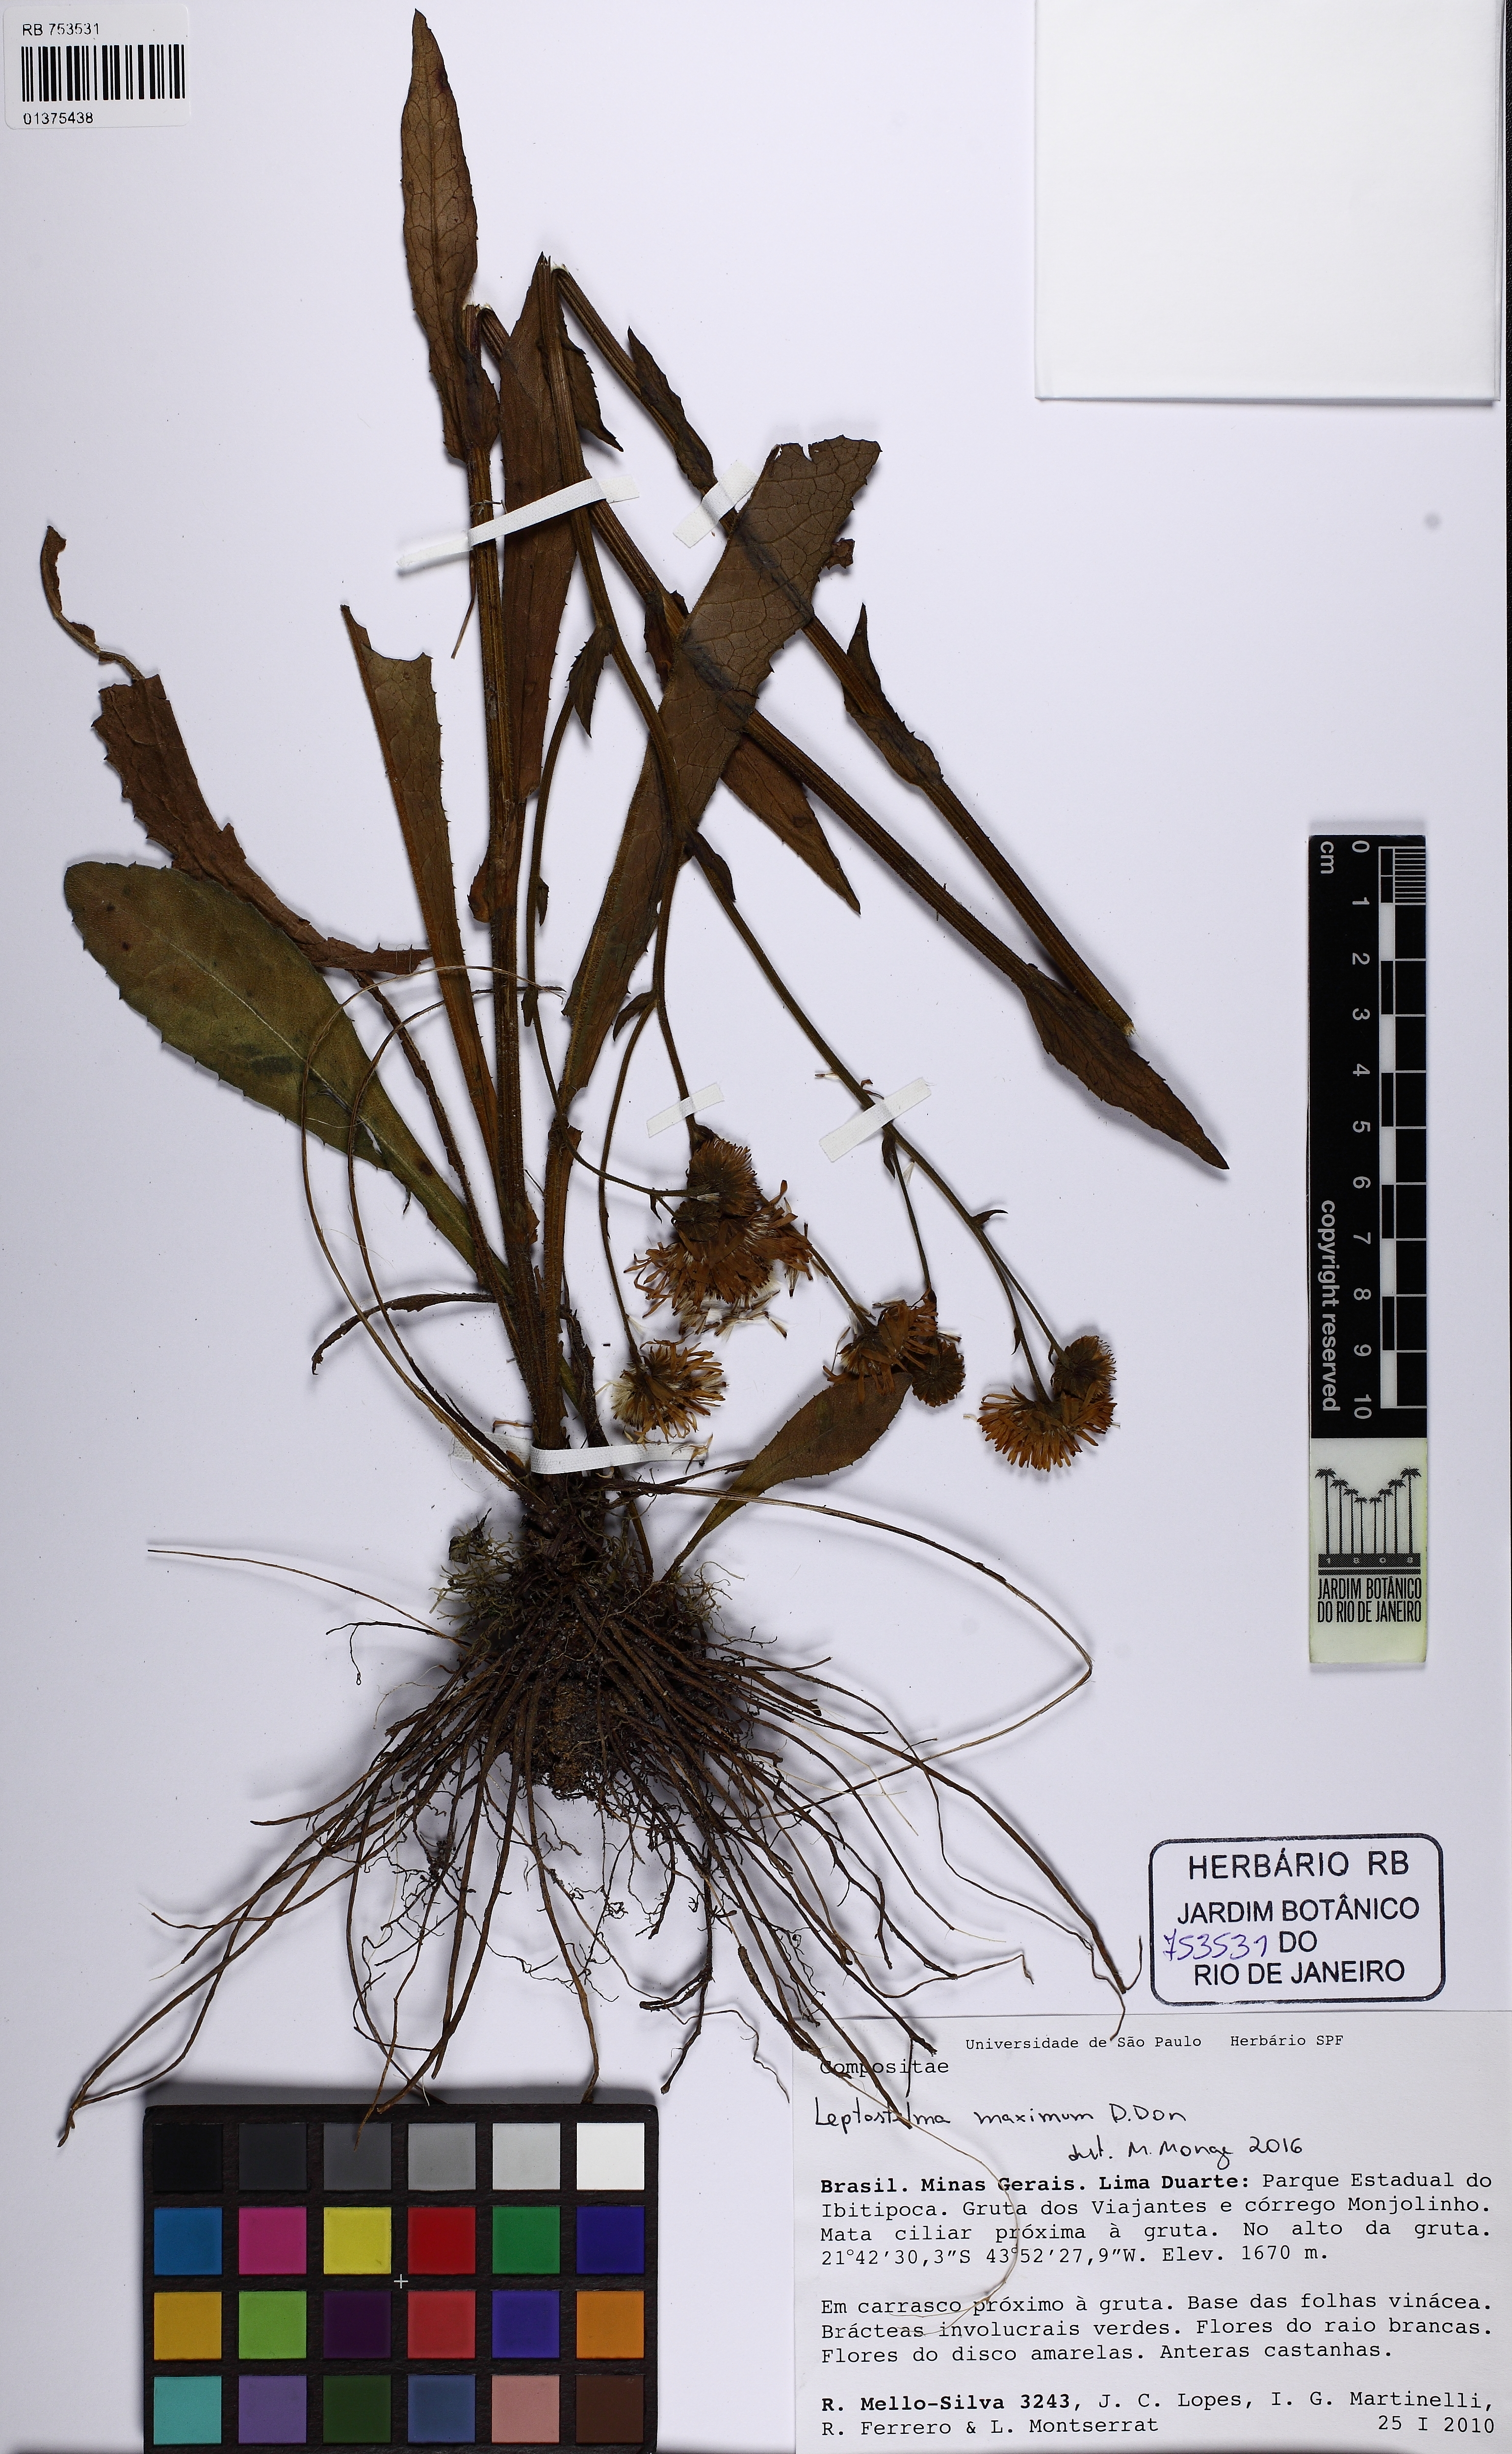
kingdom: Plantae
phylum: Tracheophyta
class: Magnoliopsida
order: Asterales
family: Asteraceae
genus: Leptostelma
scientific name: Leptostelma maxima
